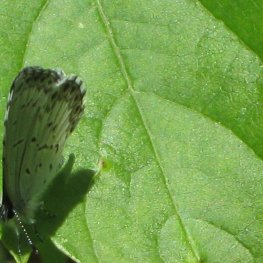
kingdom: Animalia
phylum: Arthropoda
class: Insecta
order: Lepidoptera
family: Lycaenidae
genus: Cyaniris
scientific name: Cyaniris neglecta
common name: Summer Azure
